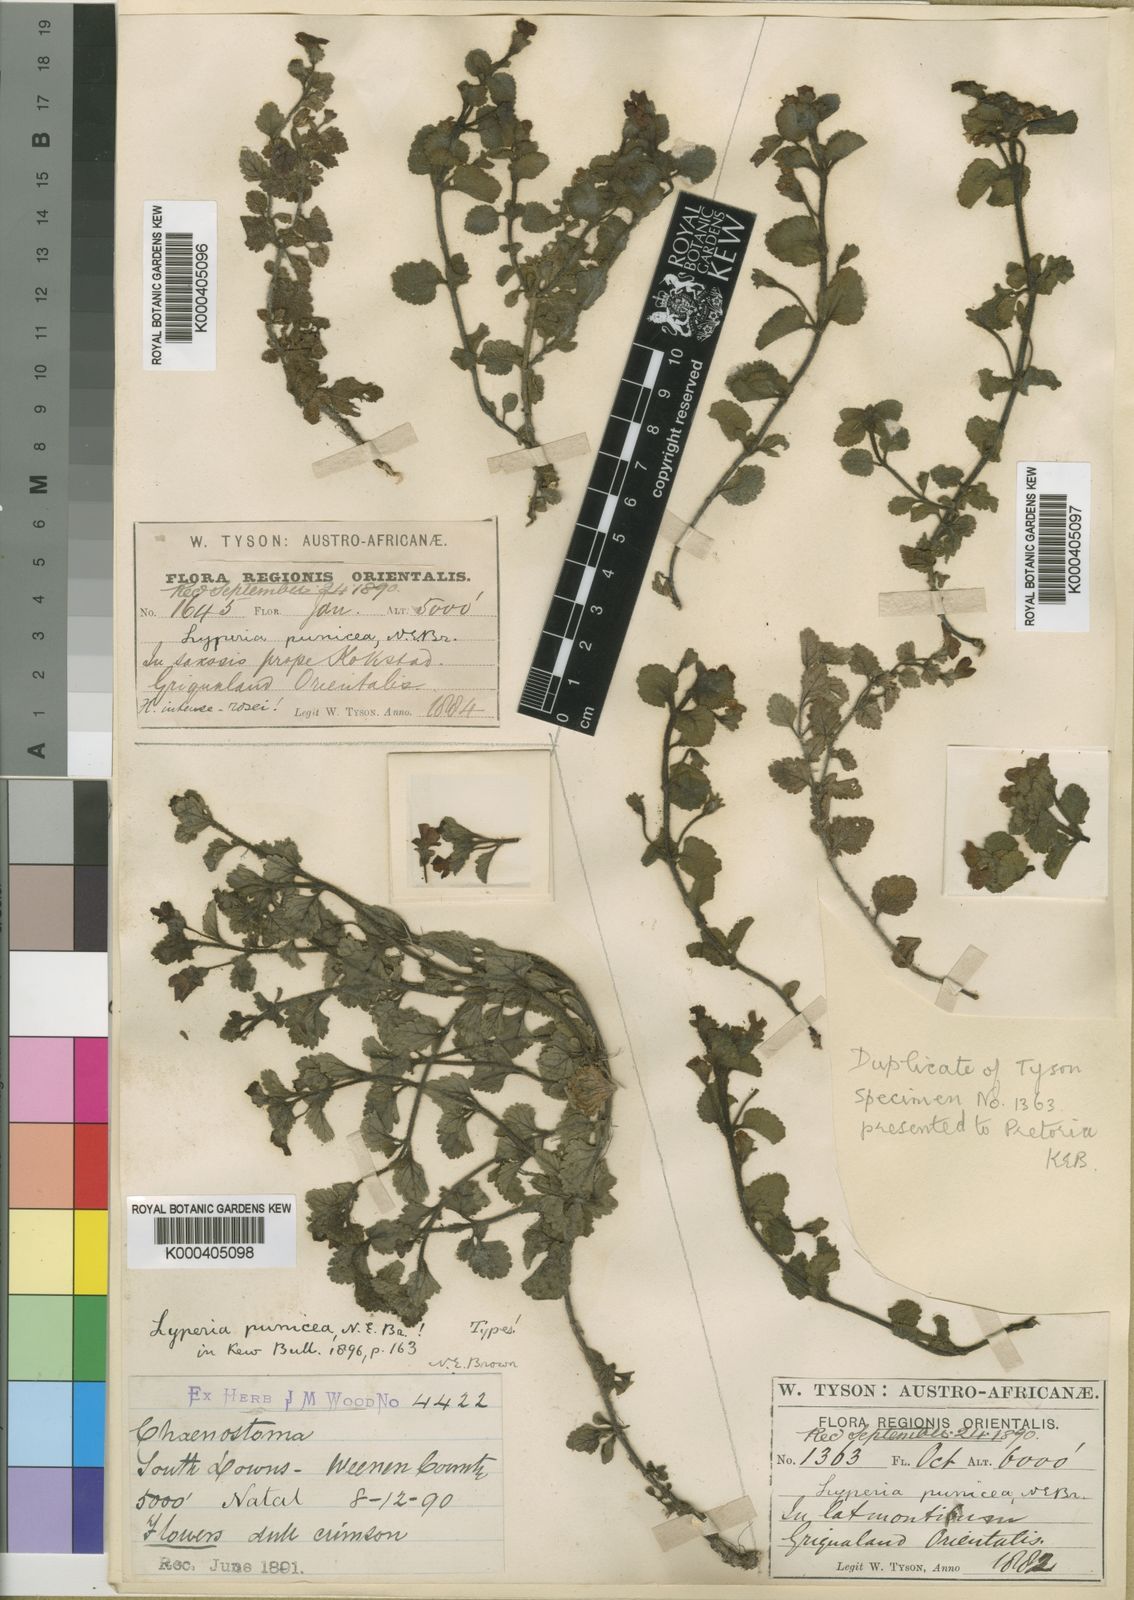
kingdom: Plantae
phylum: Tracheophyta
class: Magnoliopsida
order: Lamiales
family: Scrophulariaceae
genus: Jamesbrittenia
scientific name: Jamesbrittenia breviflora
